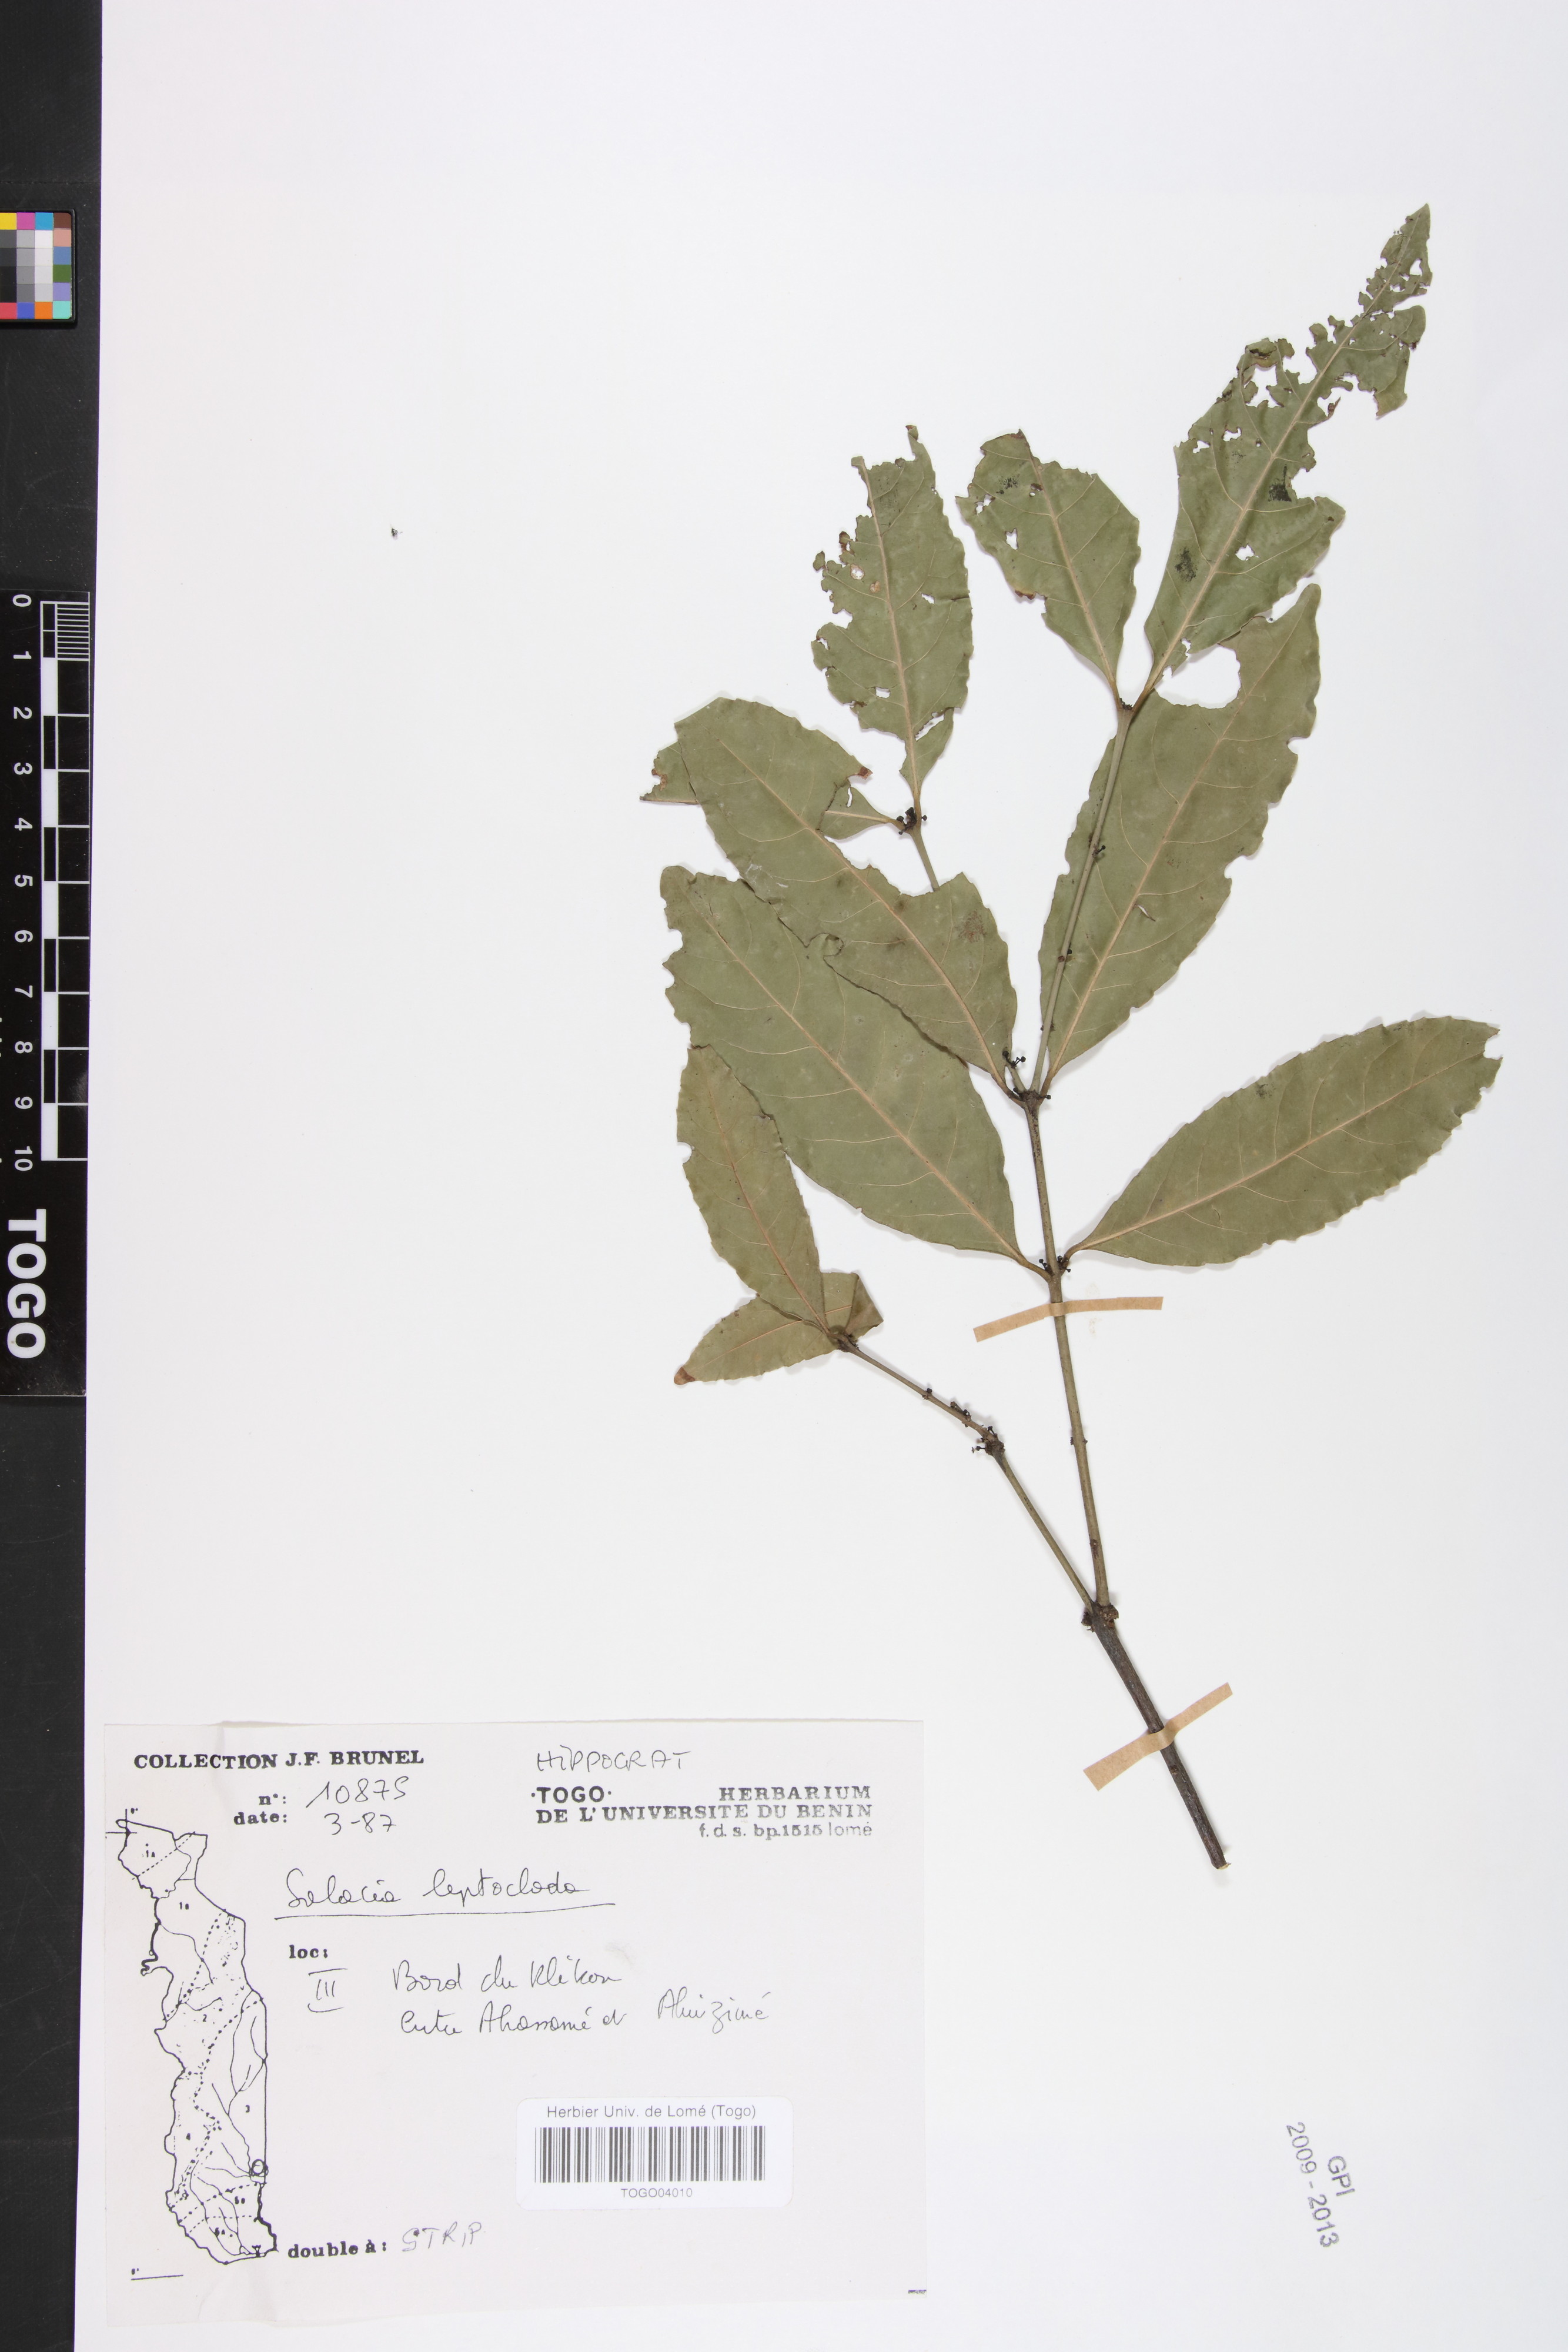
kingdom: Plantae
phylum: Tracheophyta
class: Magnoliopsida
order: Celastrales
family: Celastraceae
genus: Salacia
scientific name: Salacia leptoclada
